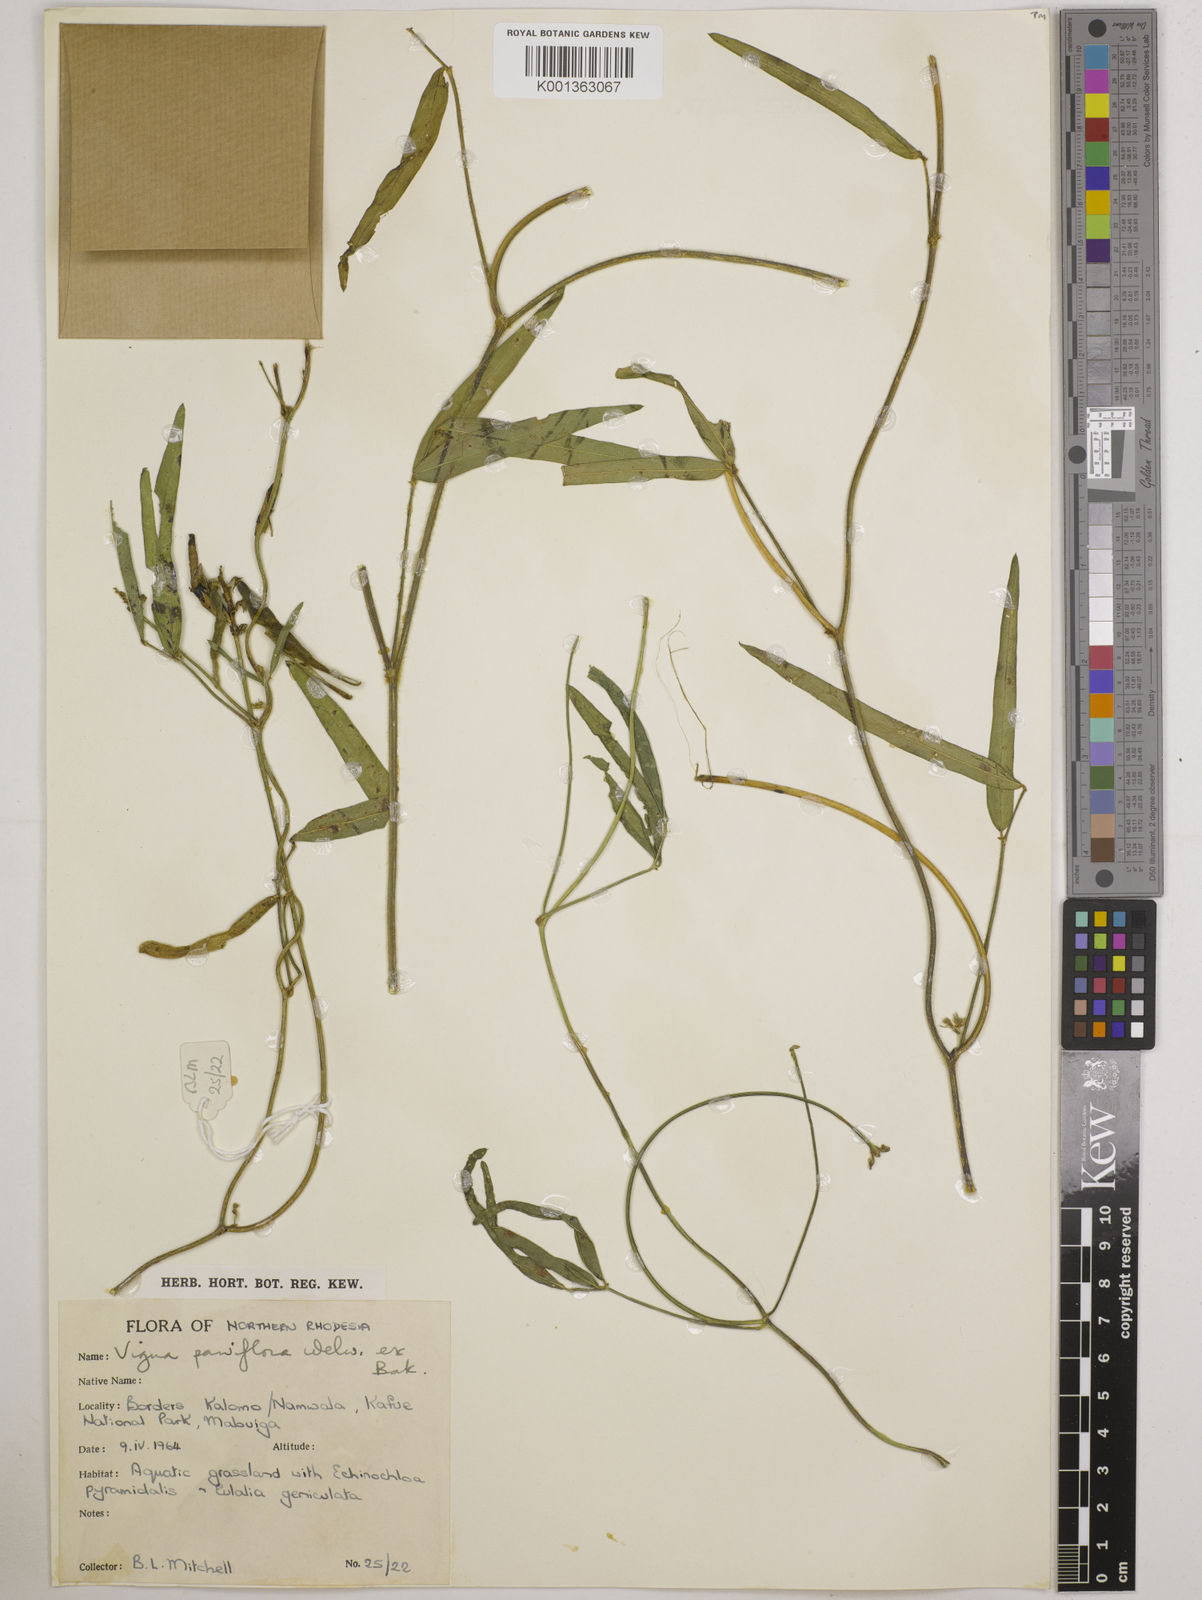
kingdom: Plantae
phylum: Tracheophyta
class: Magnoliopsida
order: Fabales
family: Fabaceae
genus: Vigna
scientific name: Vigna
